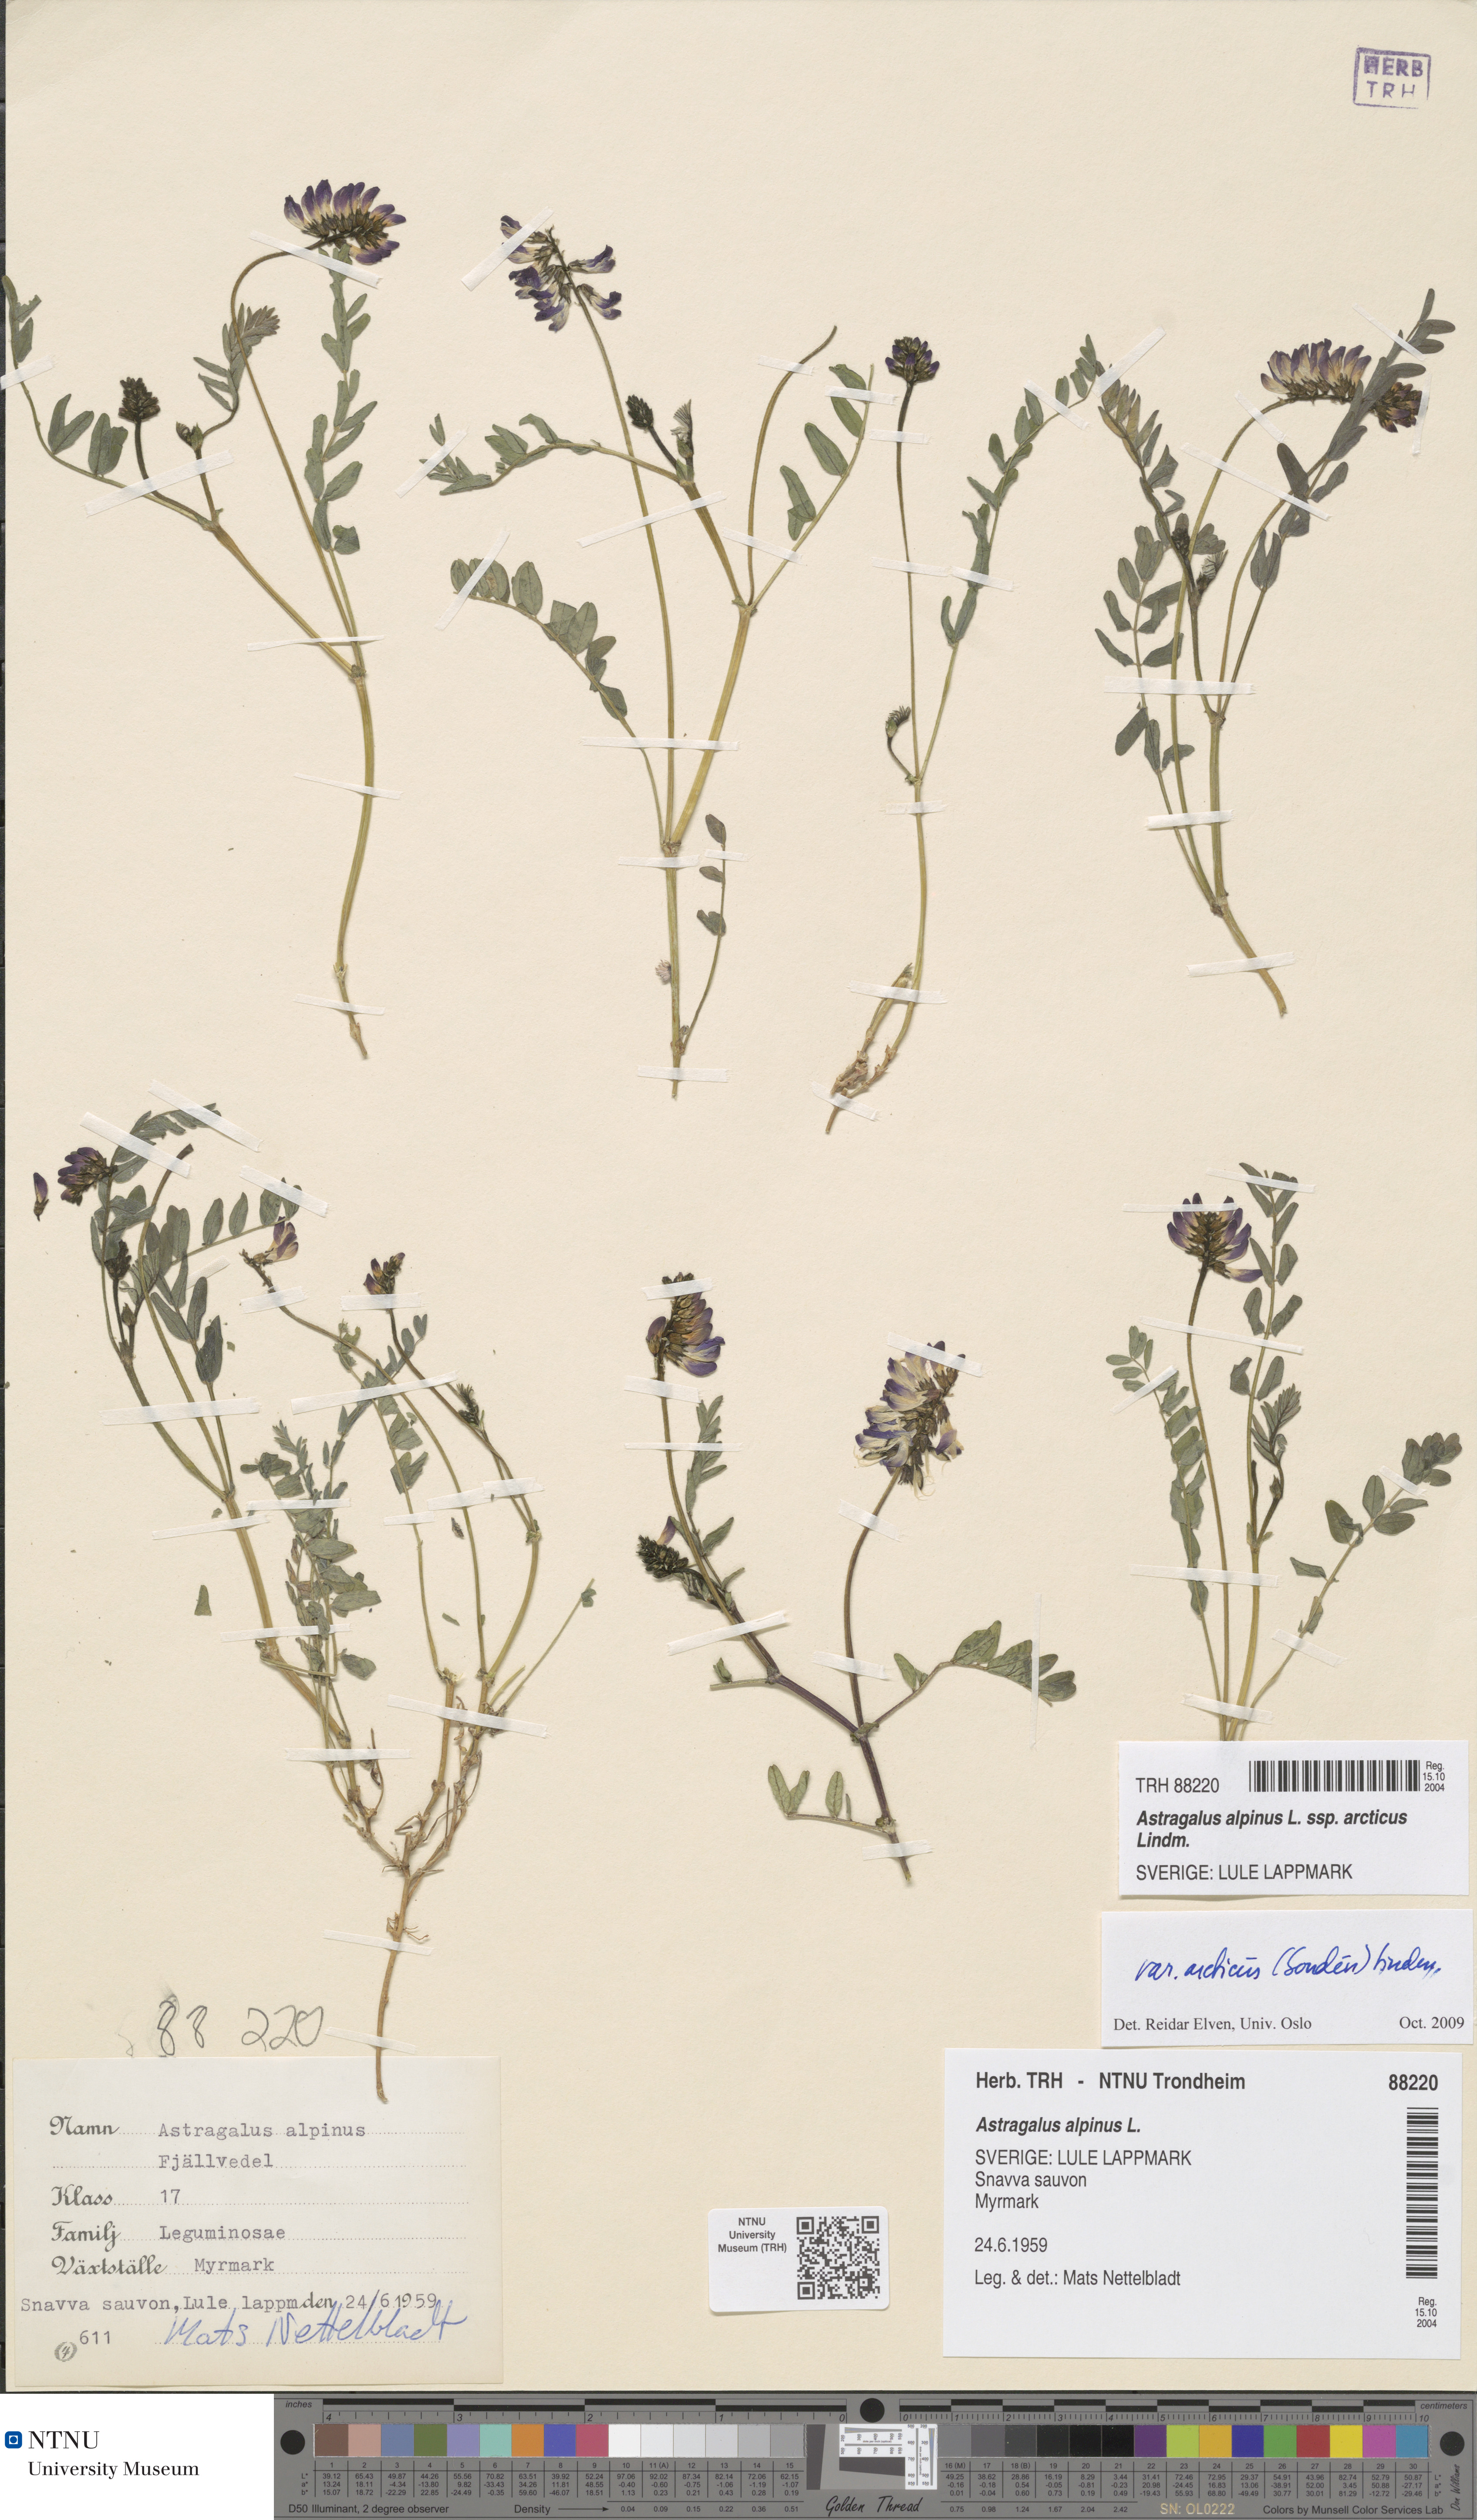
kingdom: Plantae
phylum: Tracheophyta
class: Magnoliopsida
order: Fabales
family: Fabaceae
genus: Astragalus
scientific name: Astragalus norvegicus
